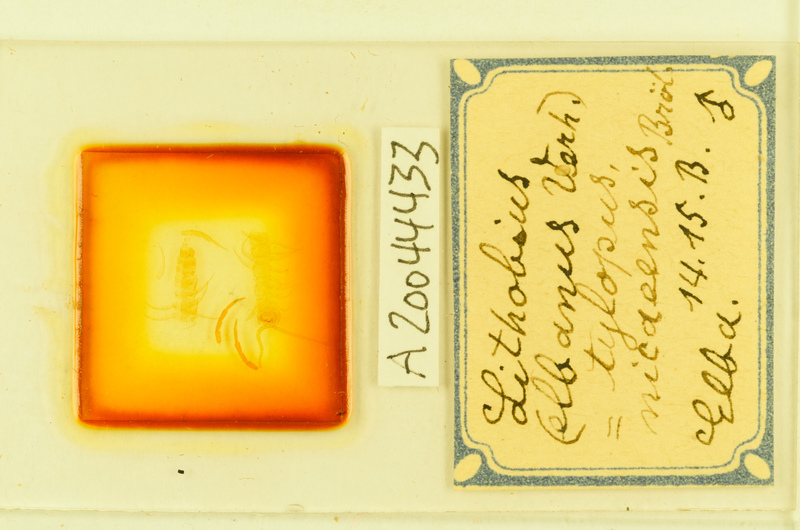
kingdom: Animalia
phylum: Arthropoda
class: Chilopoda
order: Lithobiomorpha
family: Lithobiidae
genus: Lithobius
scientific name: Lithobius tylopus
